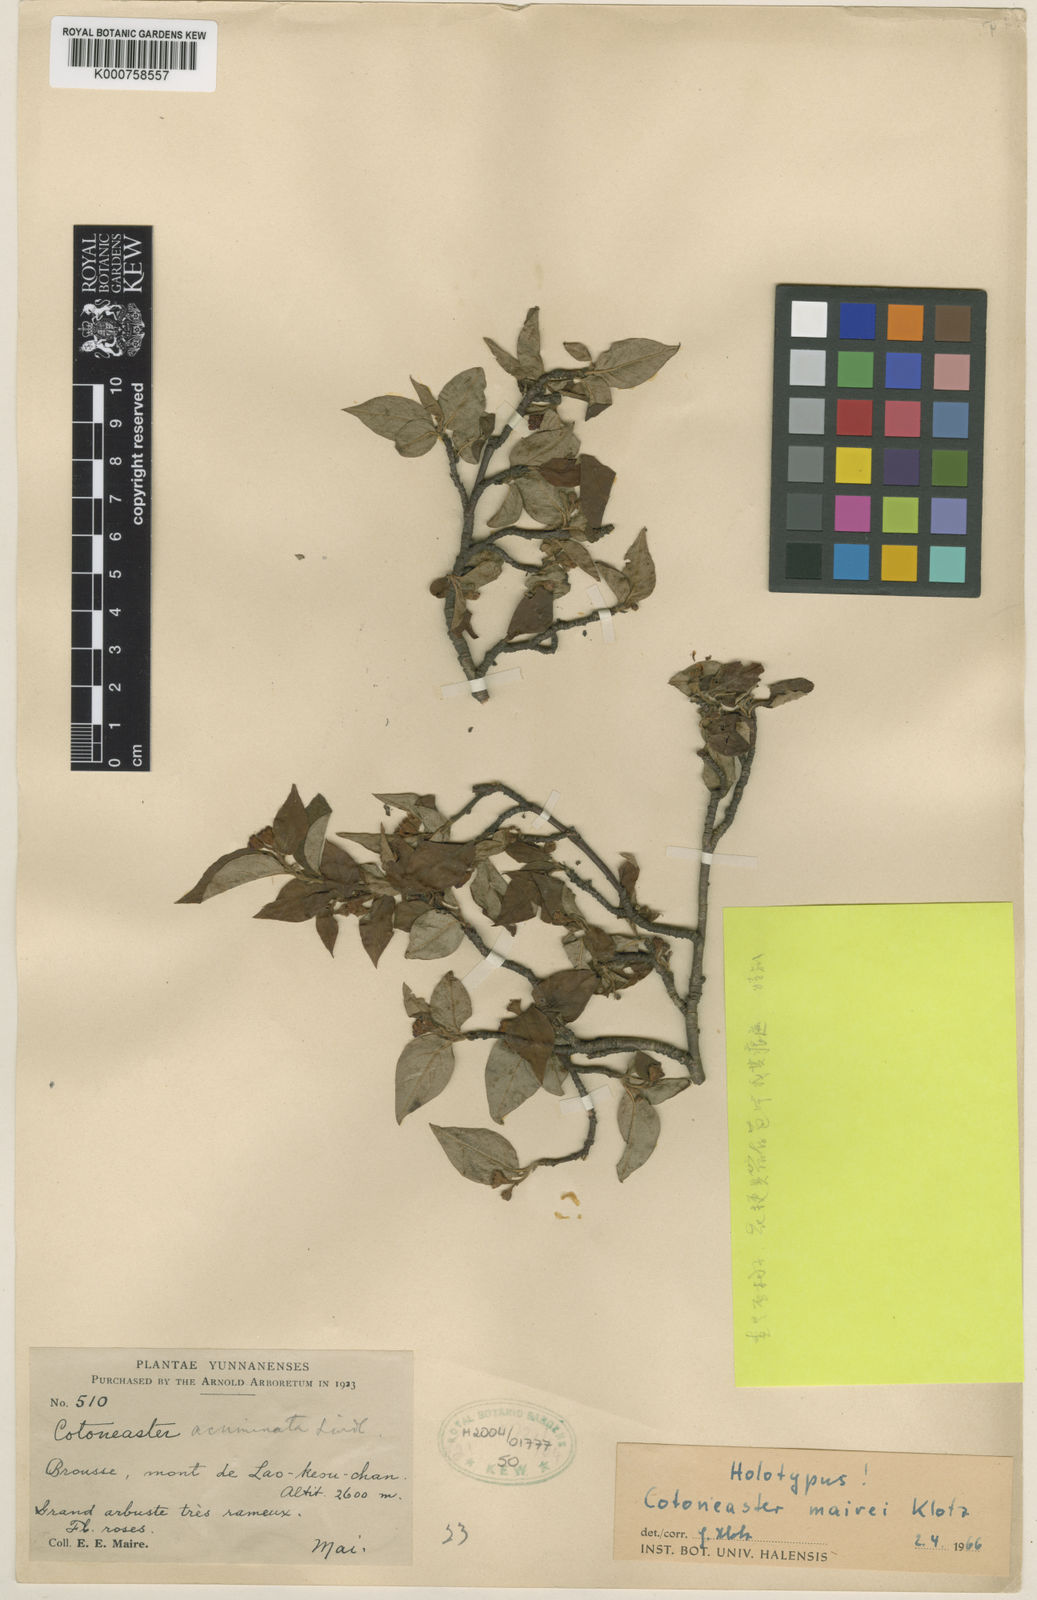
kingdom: Plantae
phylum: Tracheophyta
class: Magnoliopsida
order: Rosales
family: Rosaceae
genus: Cotoneaster
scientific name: Cotoneaster pannosus
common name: Silverleaf cotoneaster
